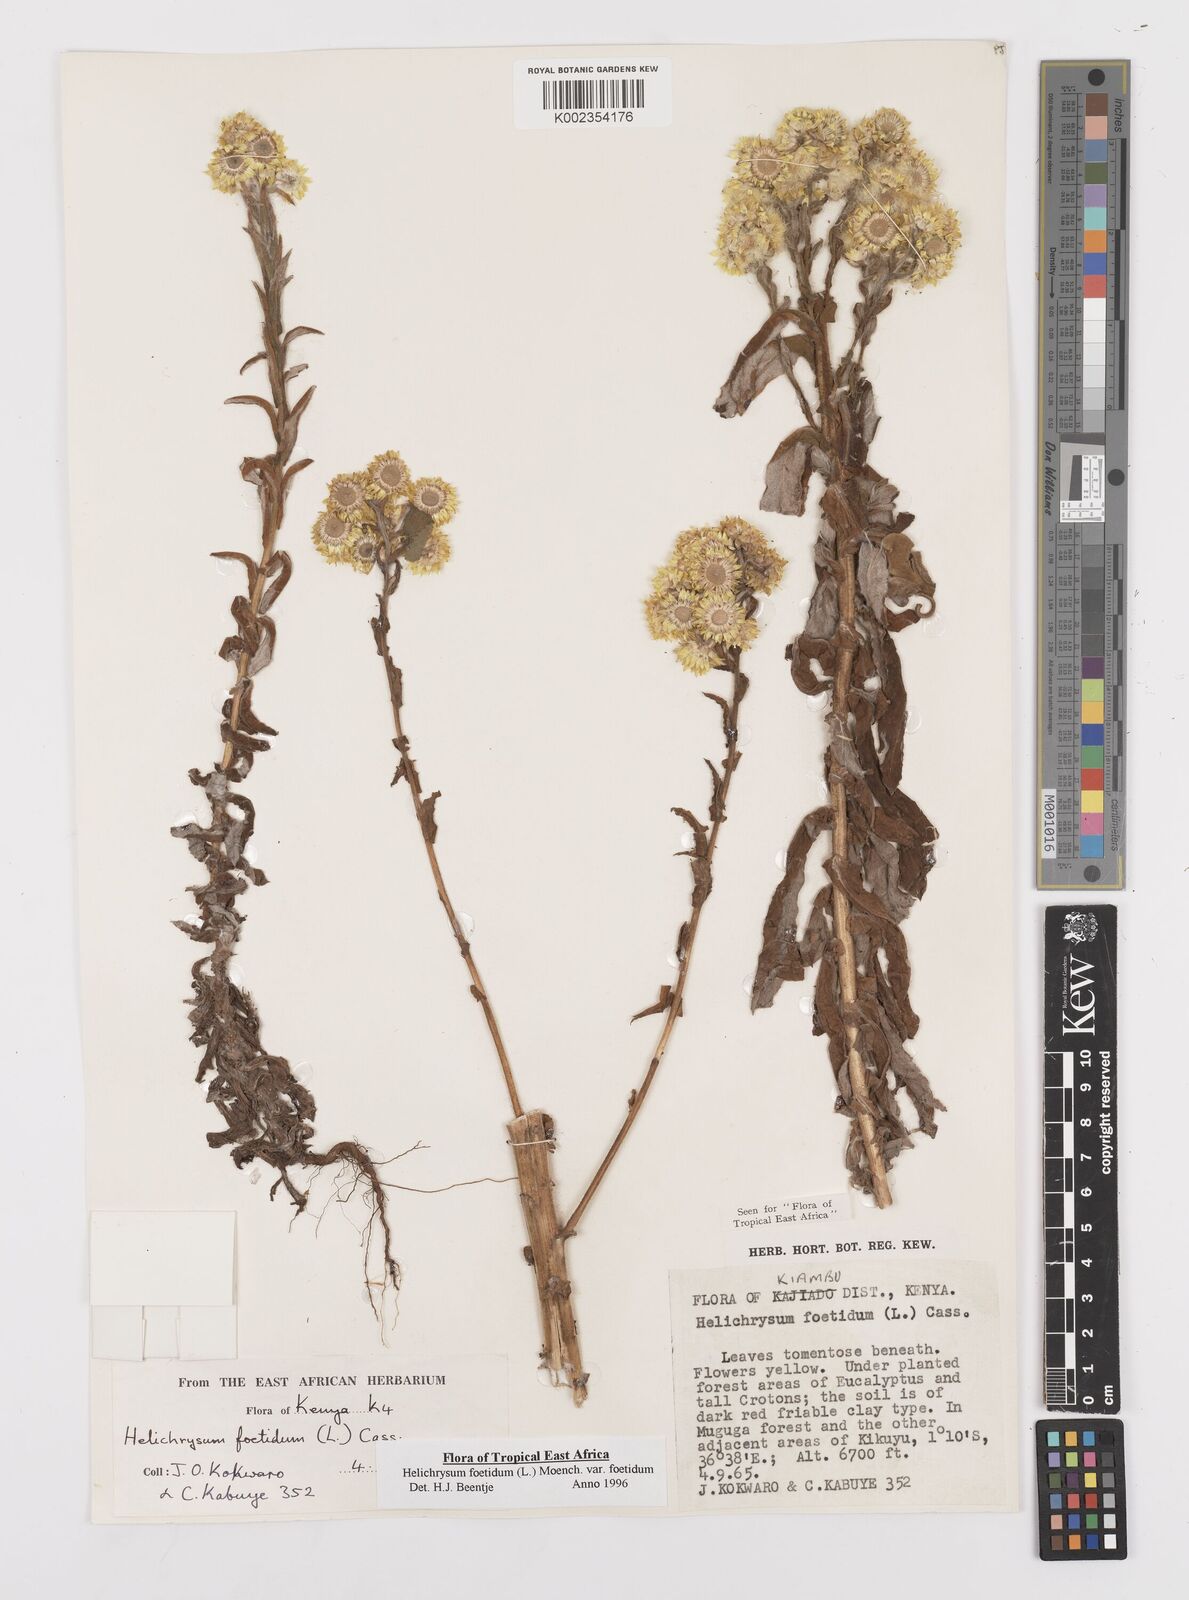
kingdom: Plantae
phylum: Tracheophyta
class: Magnoliopsida
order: Asterales
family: Asteraceae
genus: Helichrysum
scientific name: Helichrysum foetidum
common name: Stinking everlasting
